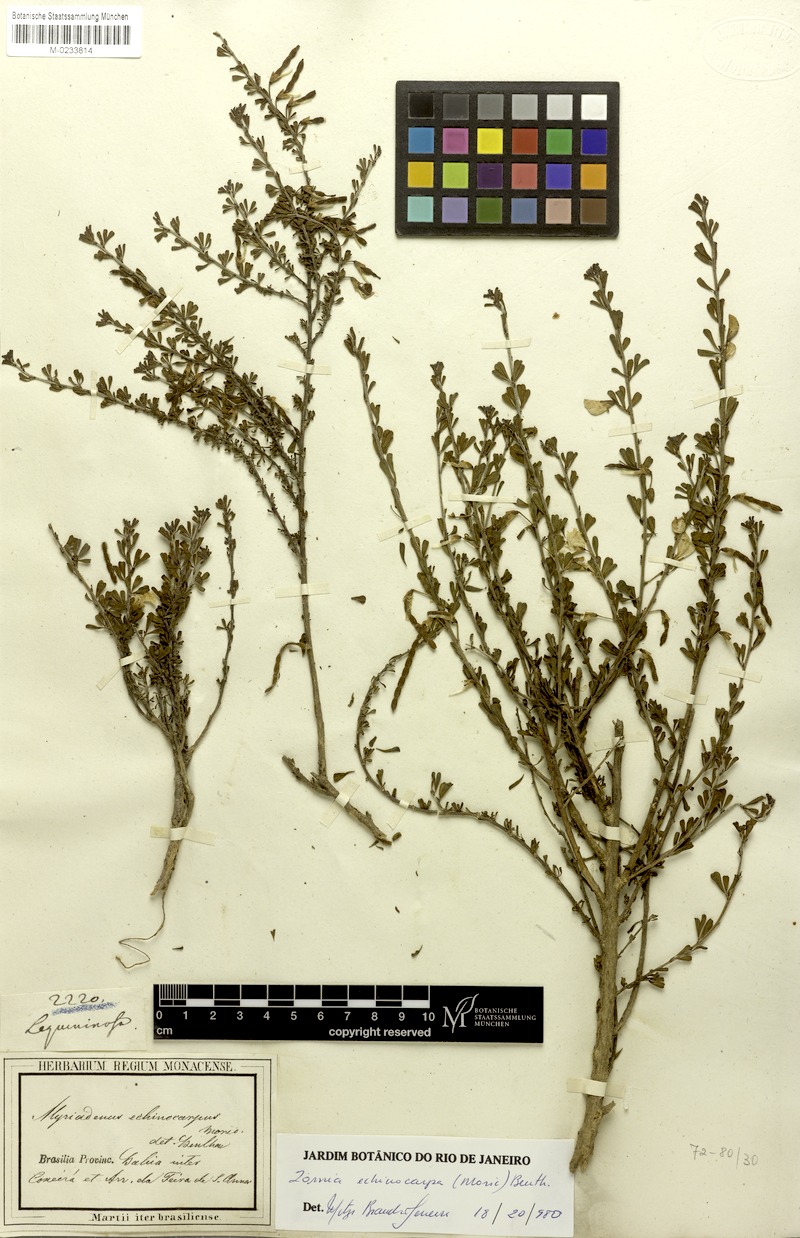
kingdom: Plantae
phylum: Tracheophyta
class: Magnoliopsida
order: Fabales
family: Fabaceae
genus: Zornia
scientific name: Zornia echinocarpa
